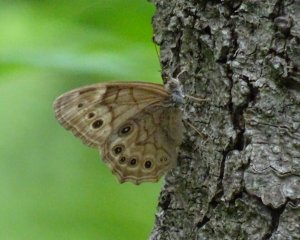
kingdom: Animalia
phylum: Arthropoda
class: Insecta
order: Lepidoptera
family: Nymphalidae
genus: Lethe
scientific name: Lethe anthedon
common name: Northern Pearly-Eye
